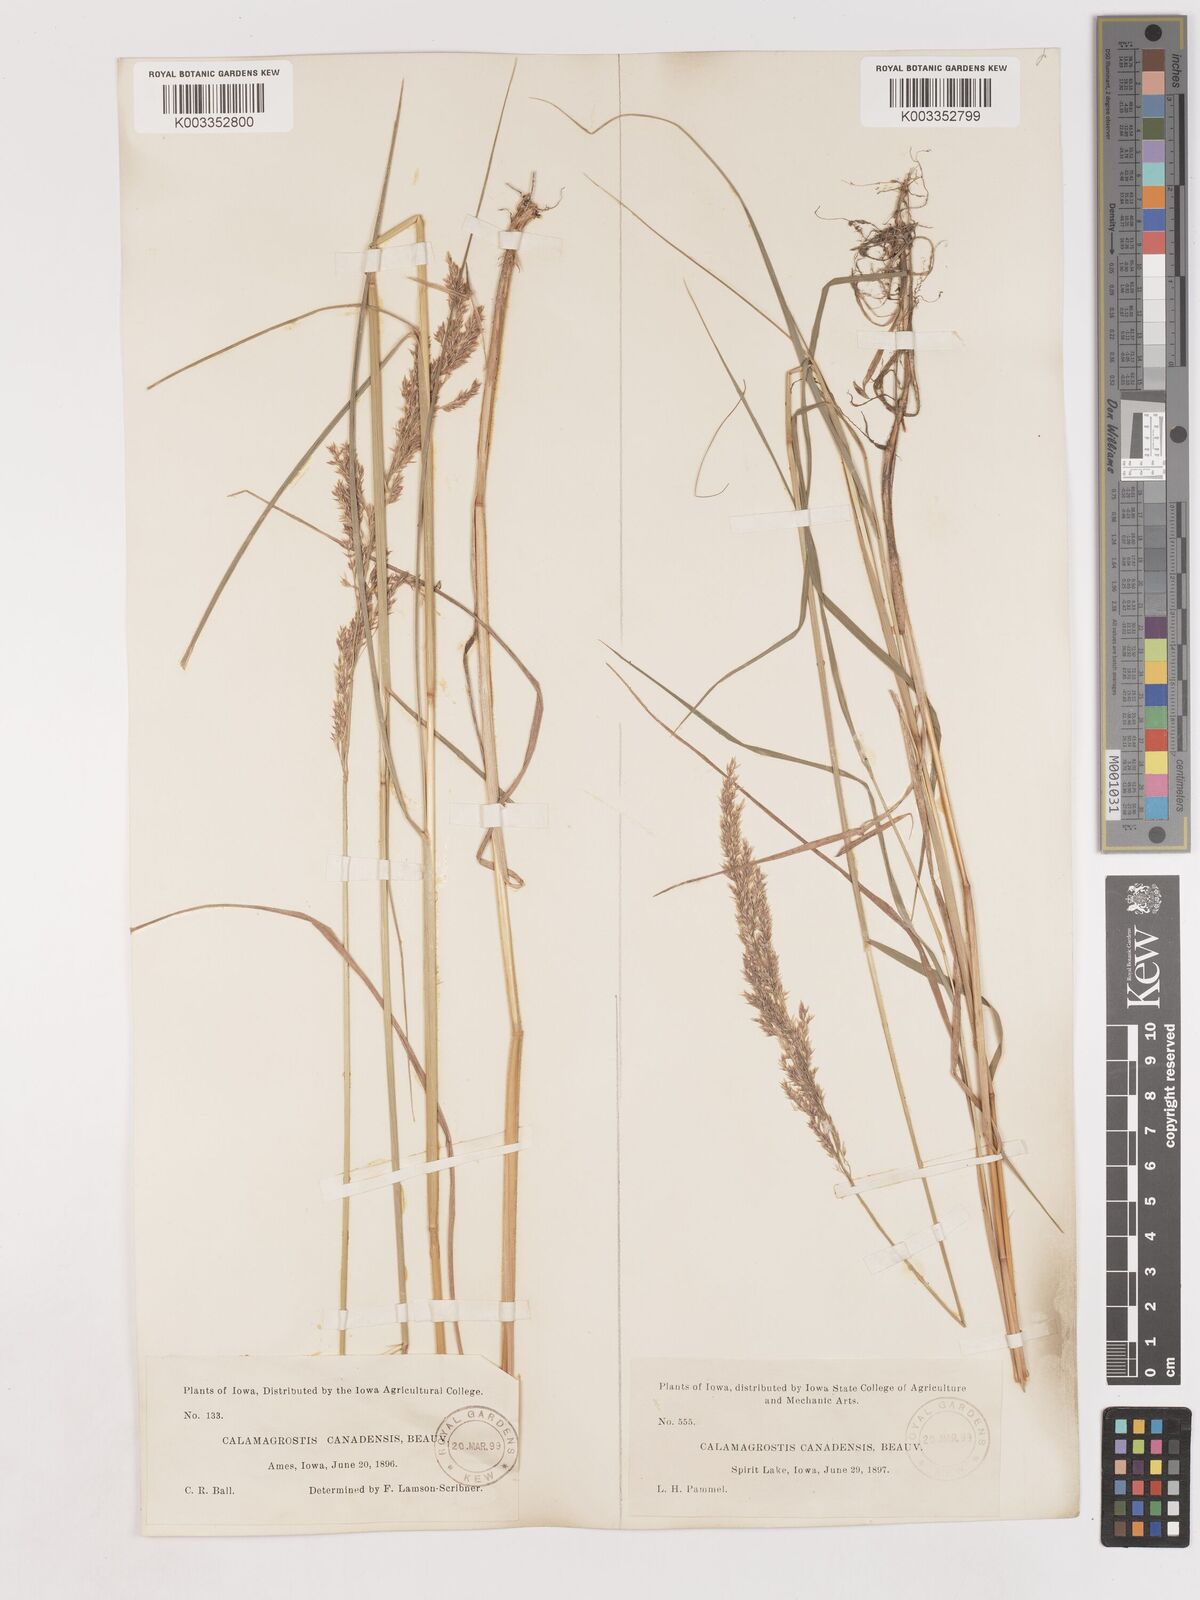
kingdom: Plantae
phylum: Tracheophyta
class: Liliopsida
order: Poales
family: Poaceae
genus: Calamagrostis
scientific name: Calamagrostis canadensis
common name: Canada bluejoint
